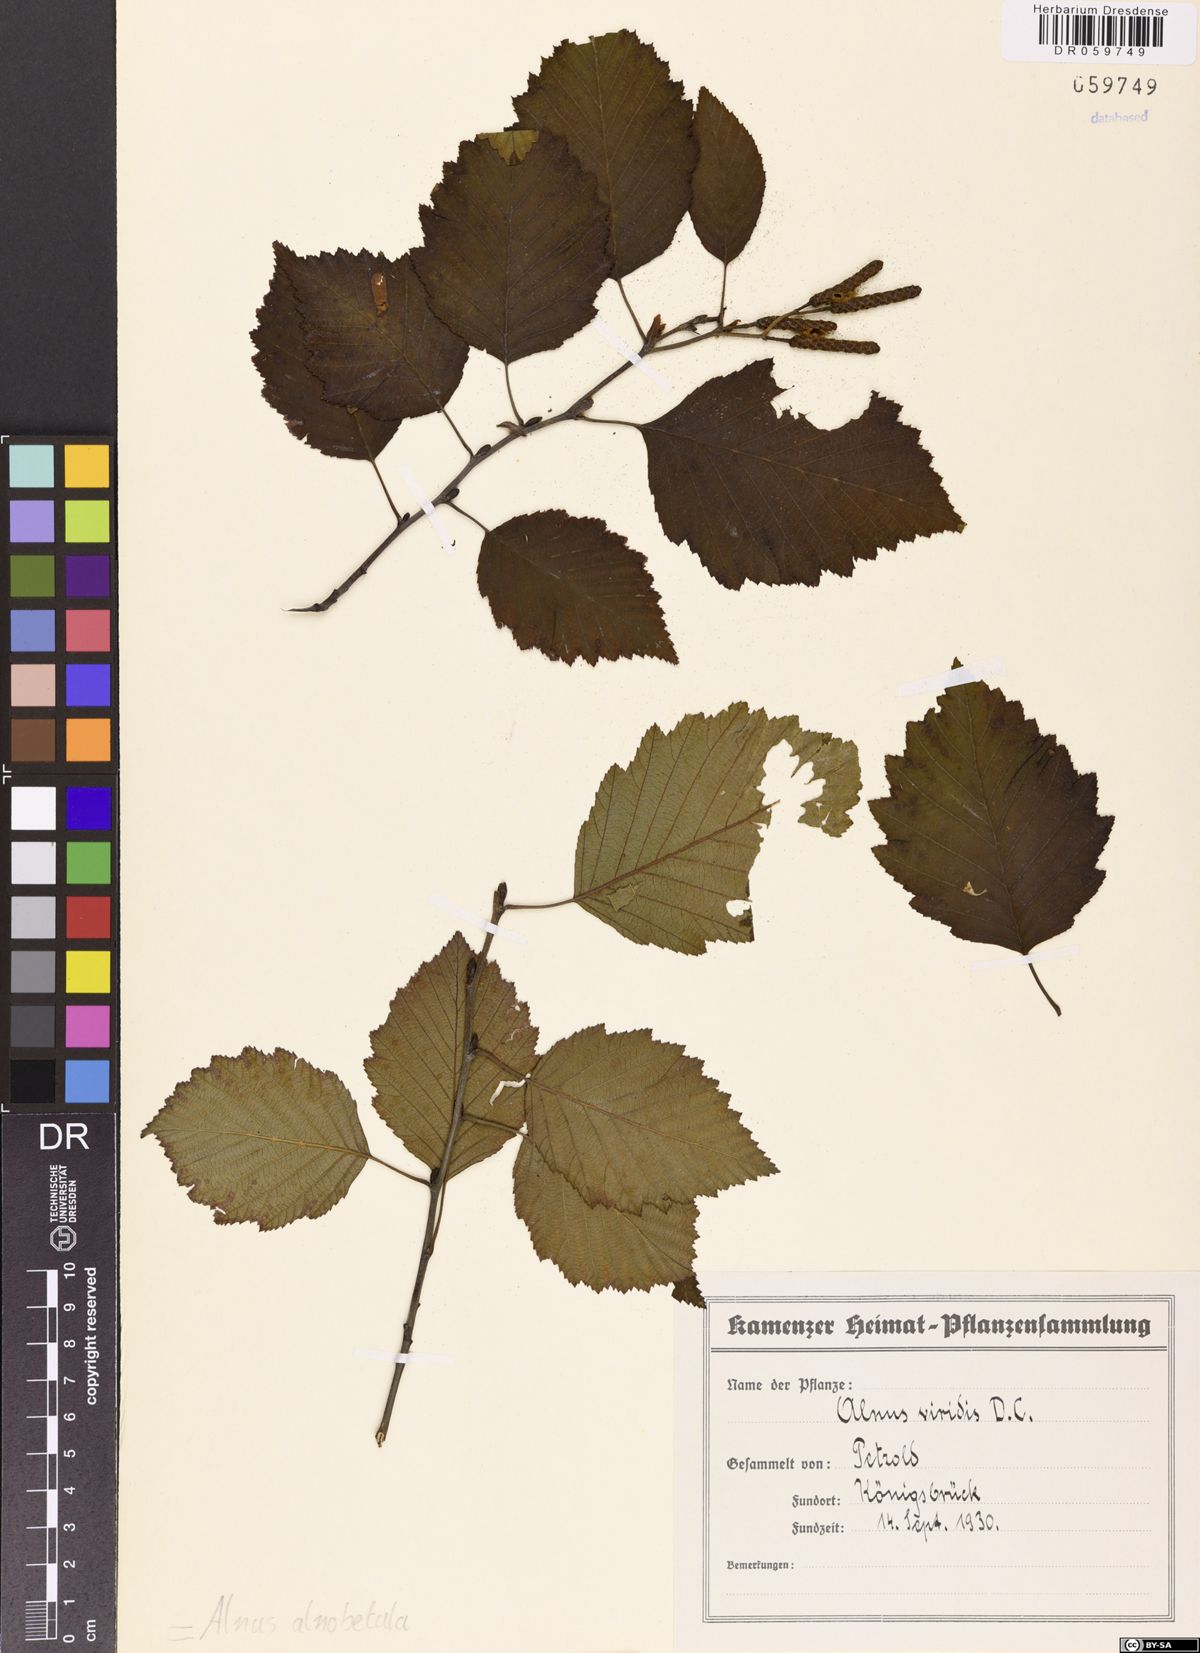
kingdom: Plantae
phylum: Tracheophyta
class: Magnoliopsida
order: Fagales
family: Betulaceae
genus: Alnus
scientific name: Alnus alnobetula
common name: Green alder
